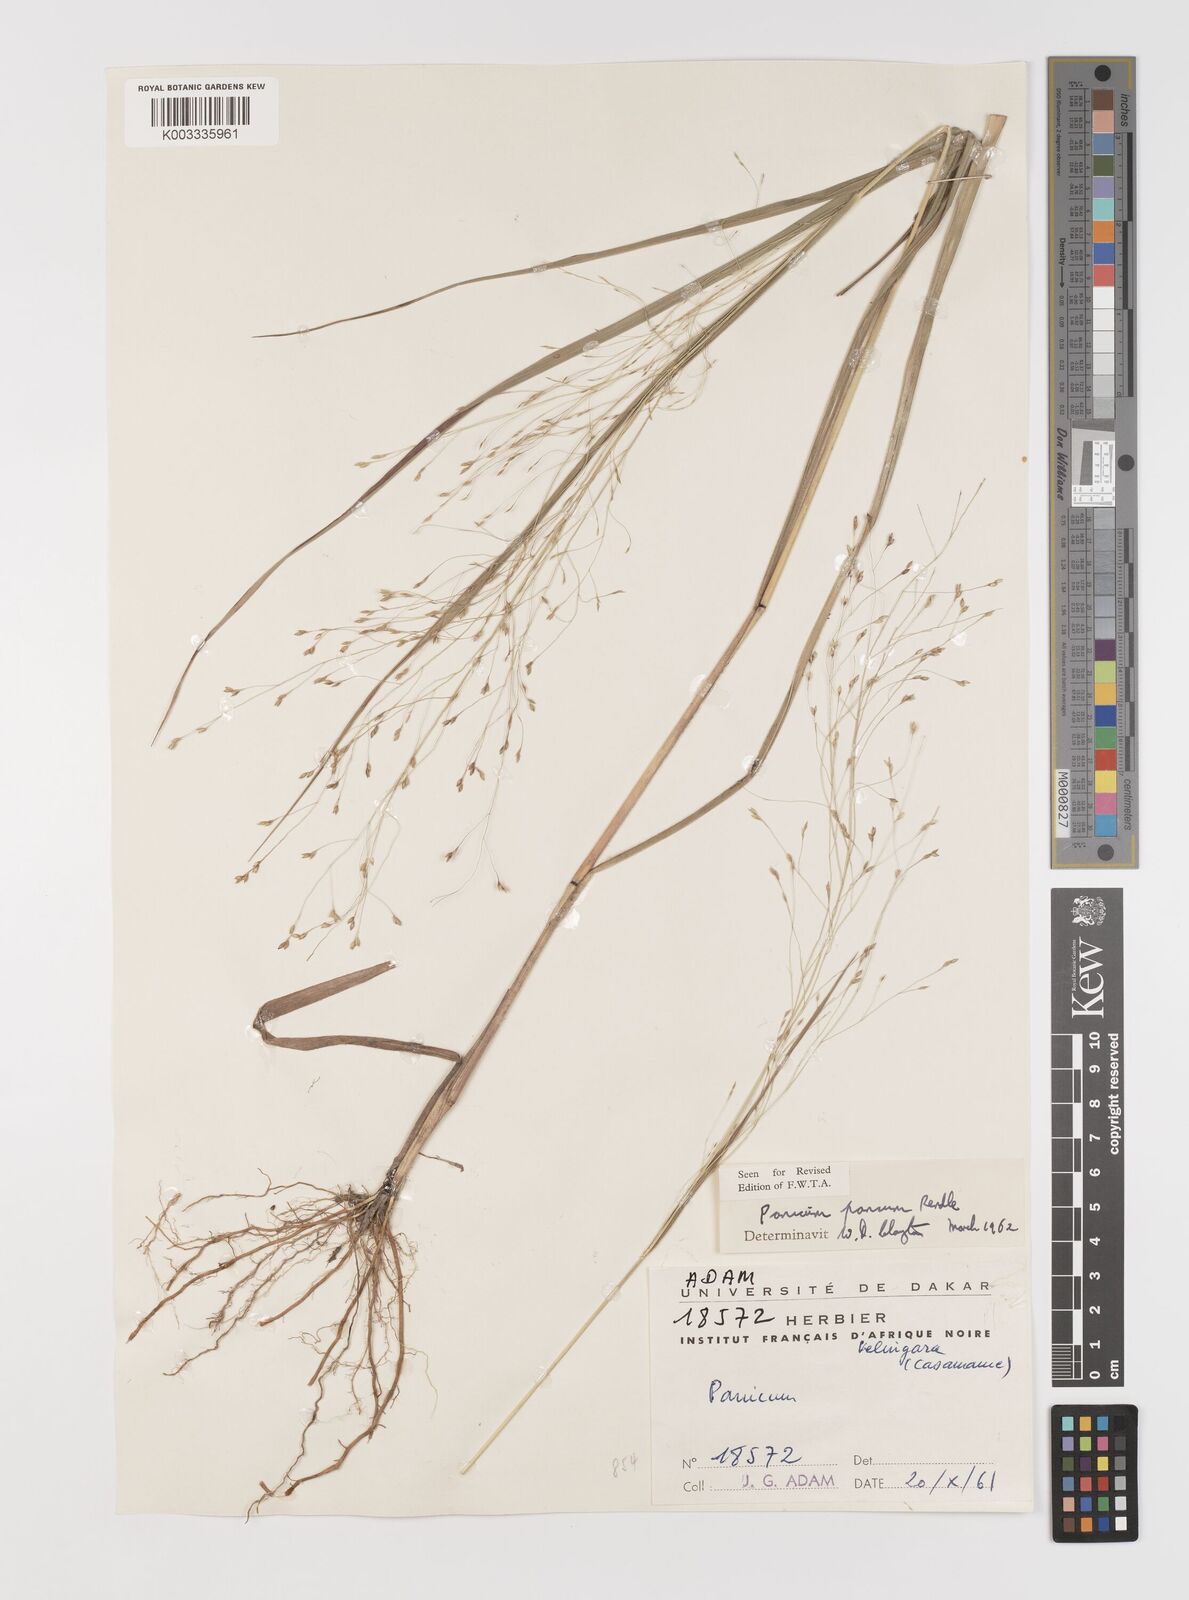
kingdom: Plantae
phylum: Tracheophyta
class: Liliopsida
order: Poales
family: Poaceae
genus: Panicum
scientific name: Panicum pansum
